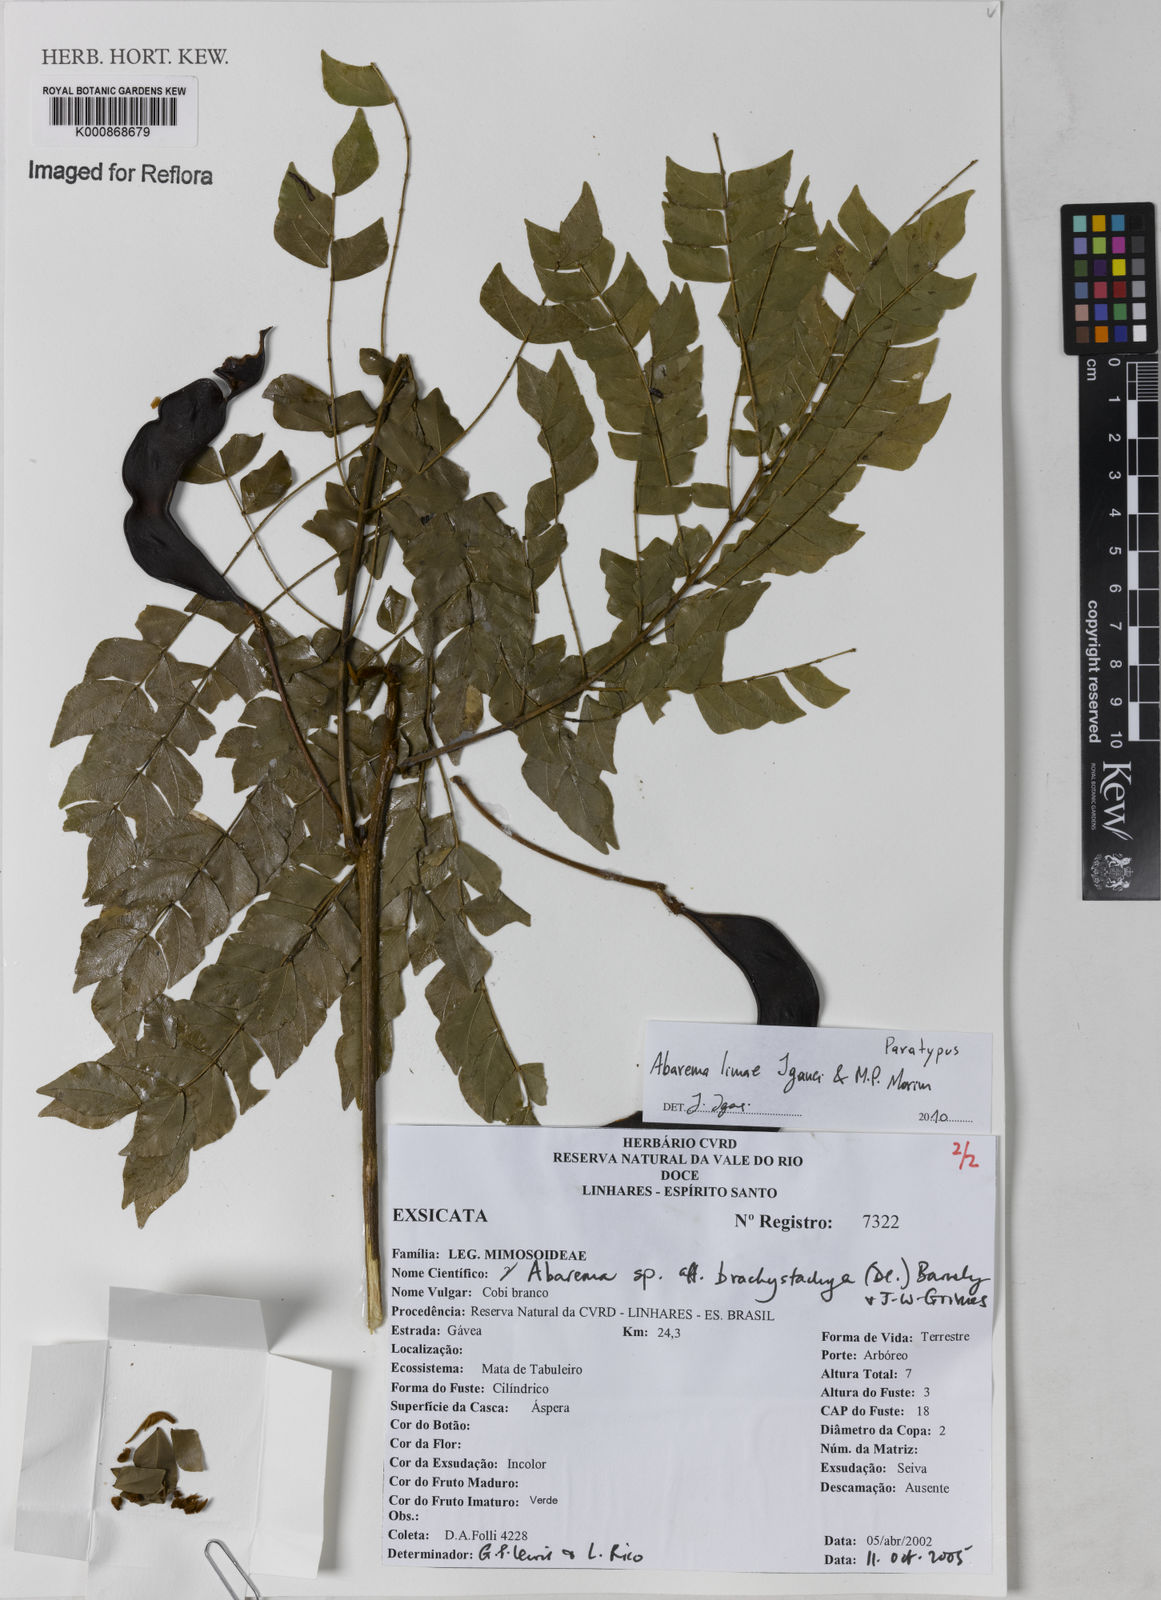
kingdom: Plantae
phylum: Tracheophyta
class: Magnoliopsida
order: Fabales
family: Fabaceae
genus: Jupunba
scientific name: Jupunba rhombea
